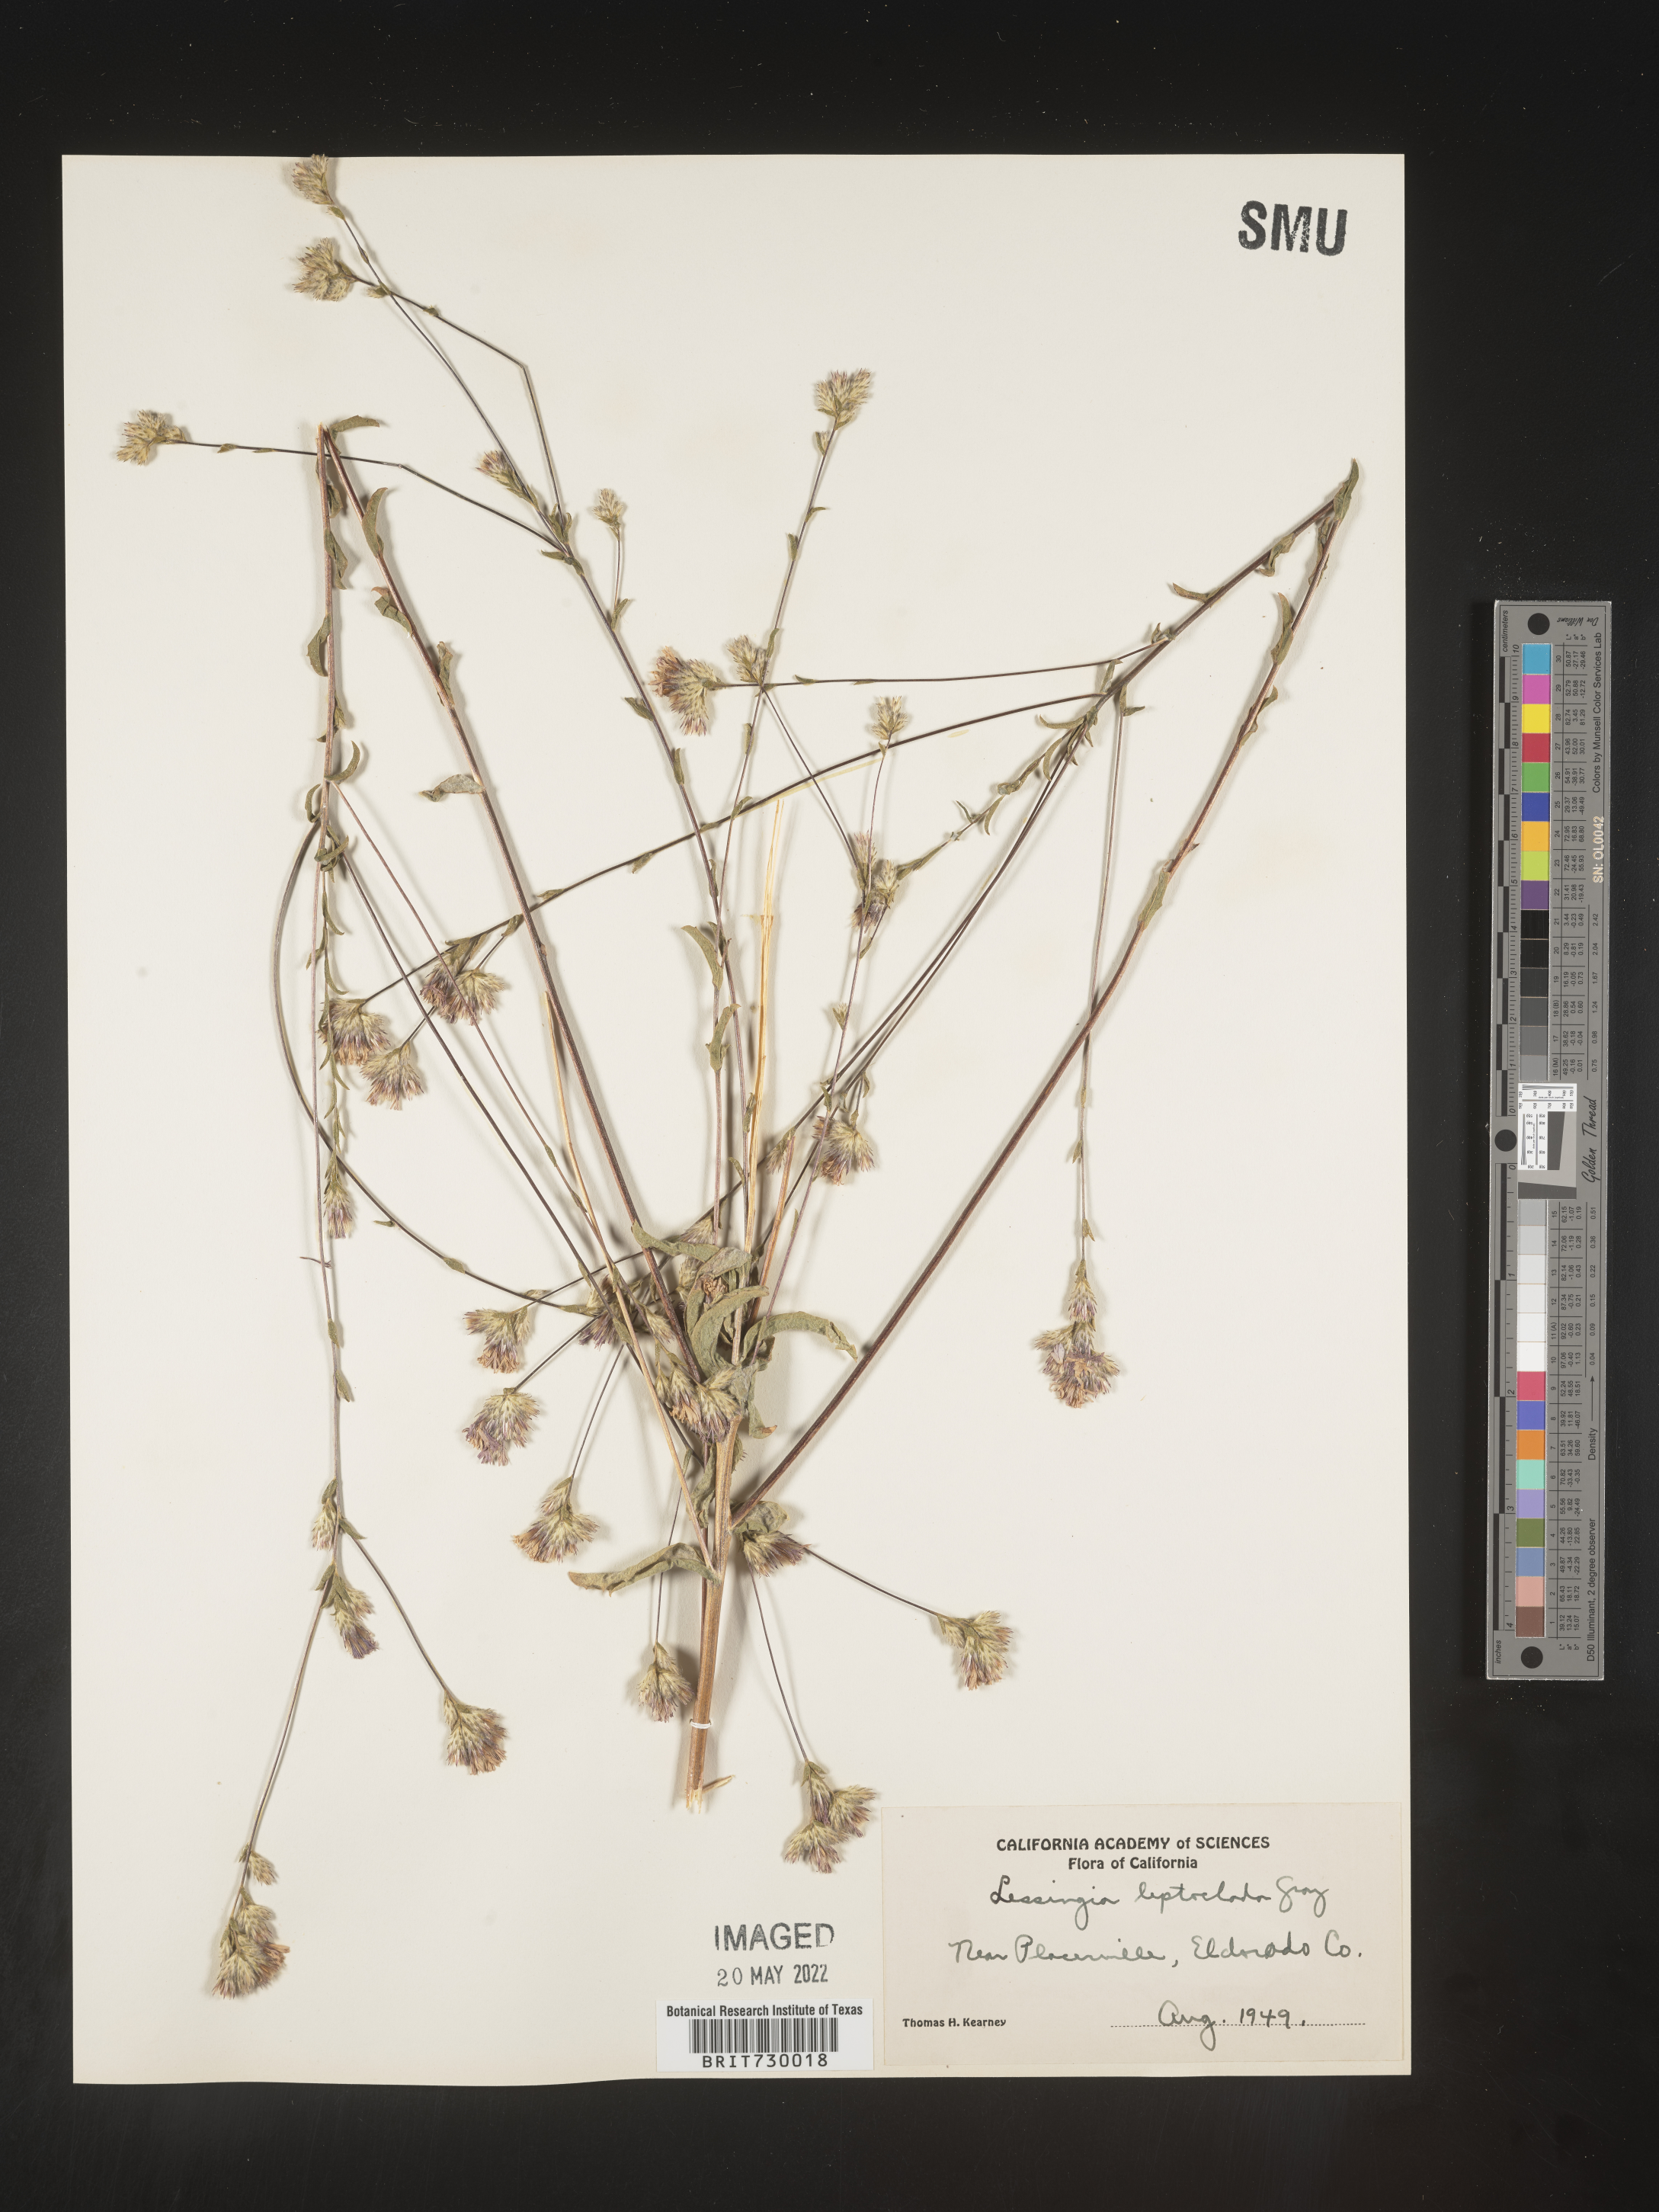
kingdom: Plantae
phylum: Tracheophyta
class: Magnoliopsida
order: Asterales
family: Asteraceae
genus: Lessingia
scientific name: Lessingia
